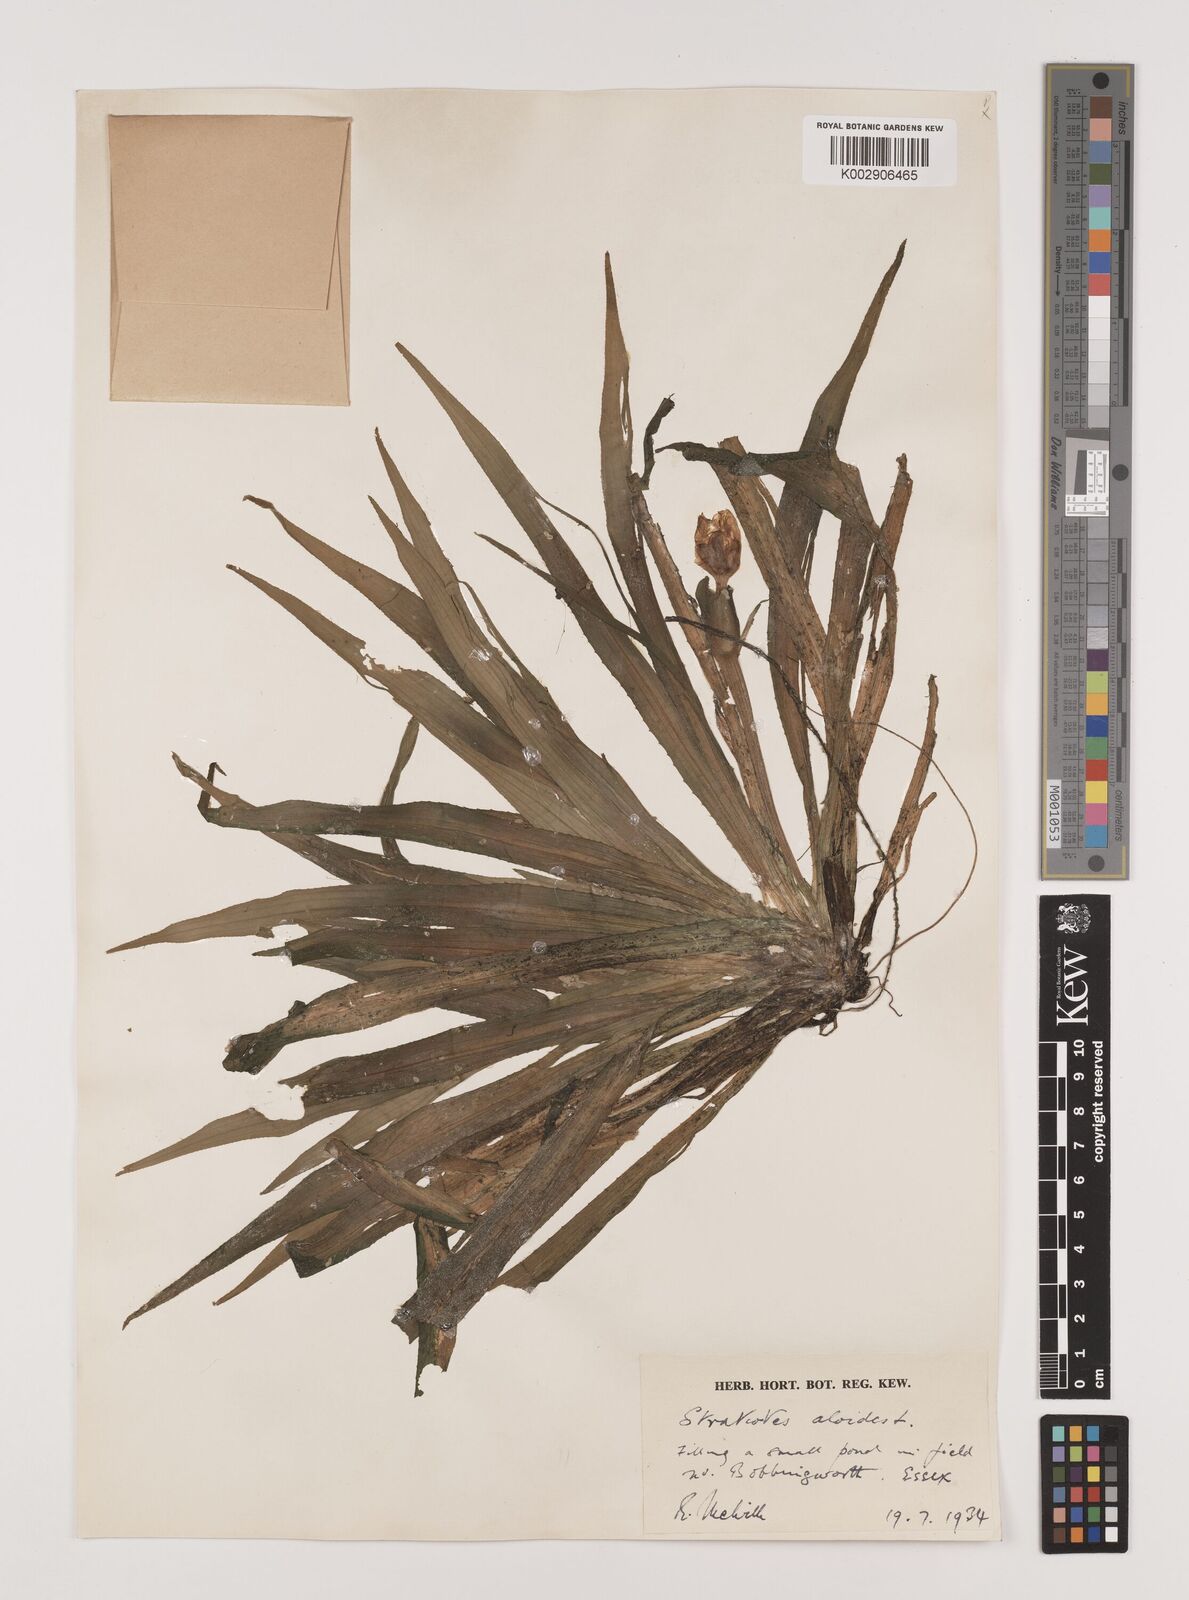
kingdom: Plantae
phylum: Tracheophyta
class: Liliopsida
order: Alismatales
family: Hydrocharitaceae
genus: Stratiotes
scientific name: Stratiotes aloides
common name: Water-soldier
